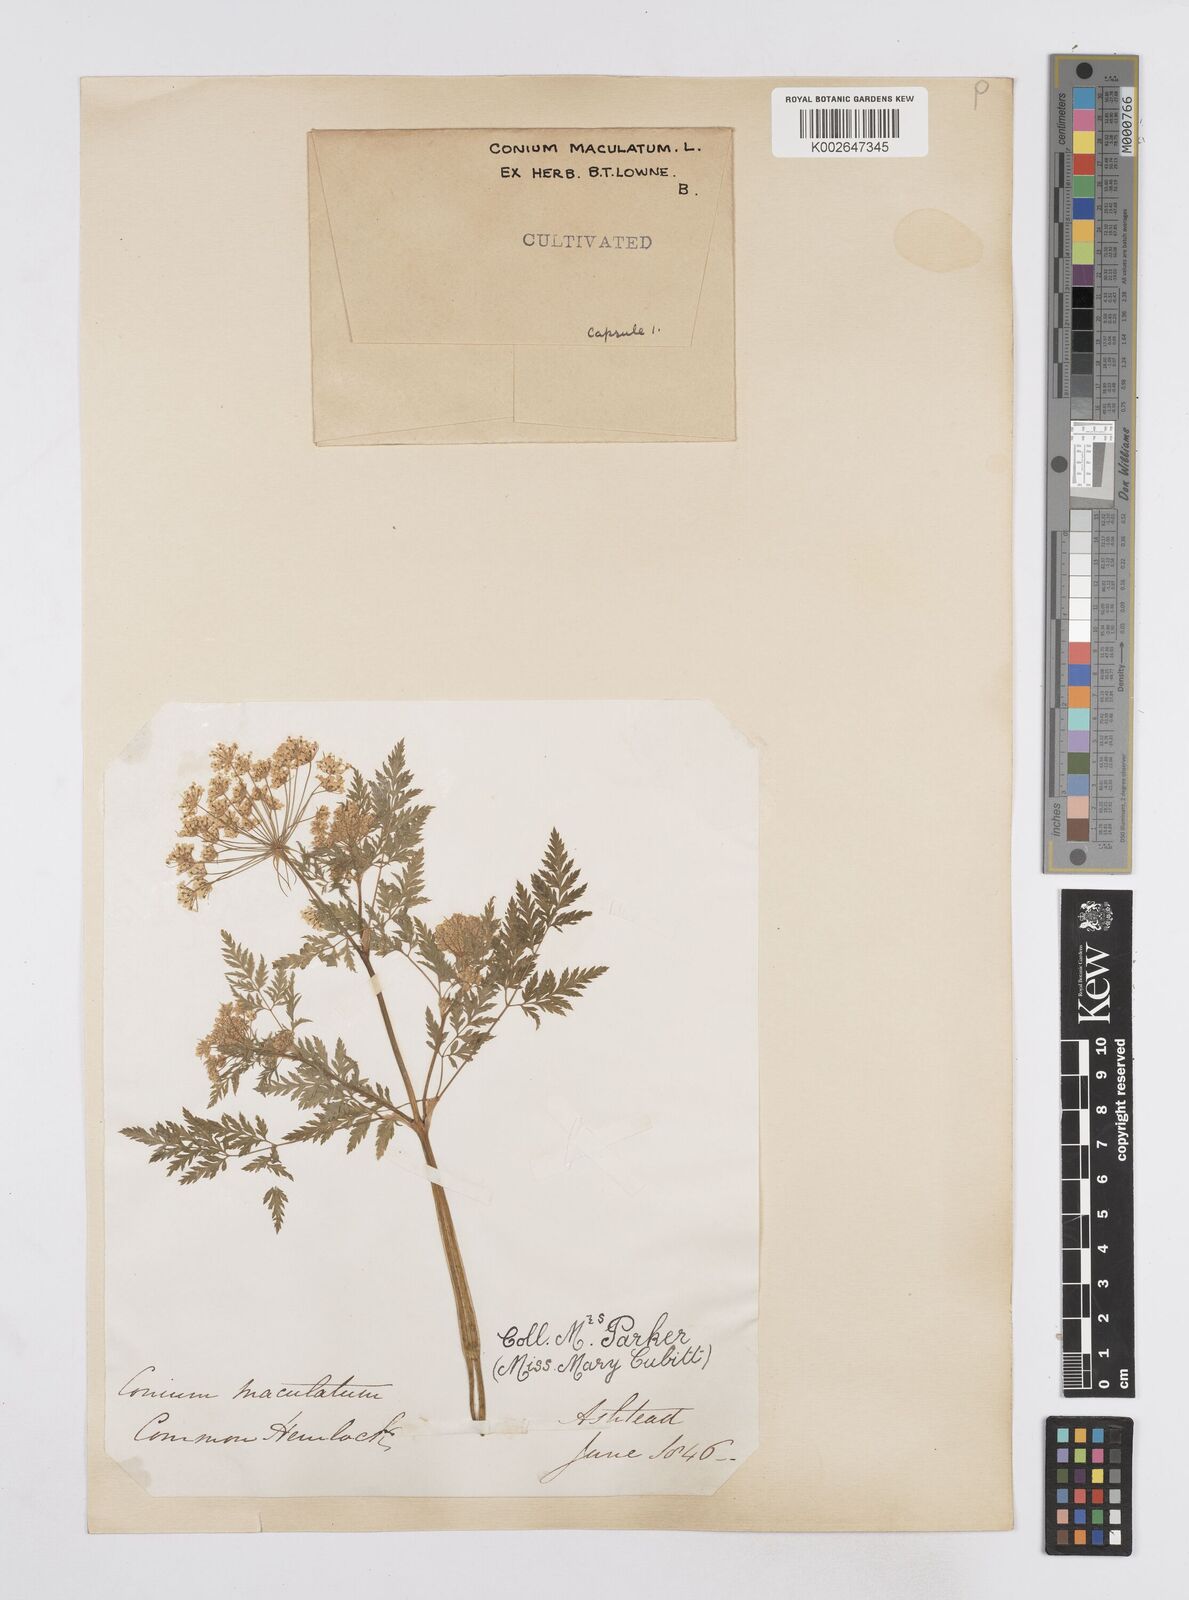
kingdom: Plantae
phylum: Tracheophyta
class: Magnoliopsida
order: Apiales
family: Apiaceae
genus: Conium
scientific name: Conium maculatum
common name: Hemlock
